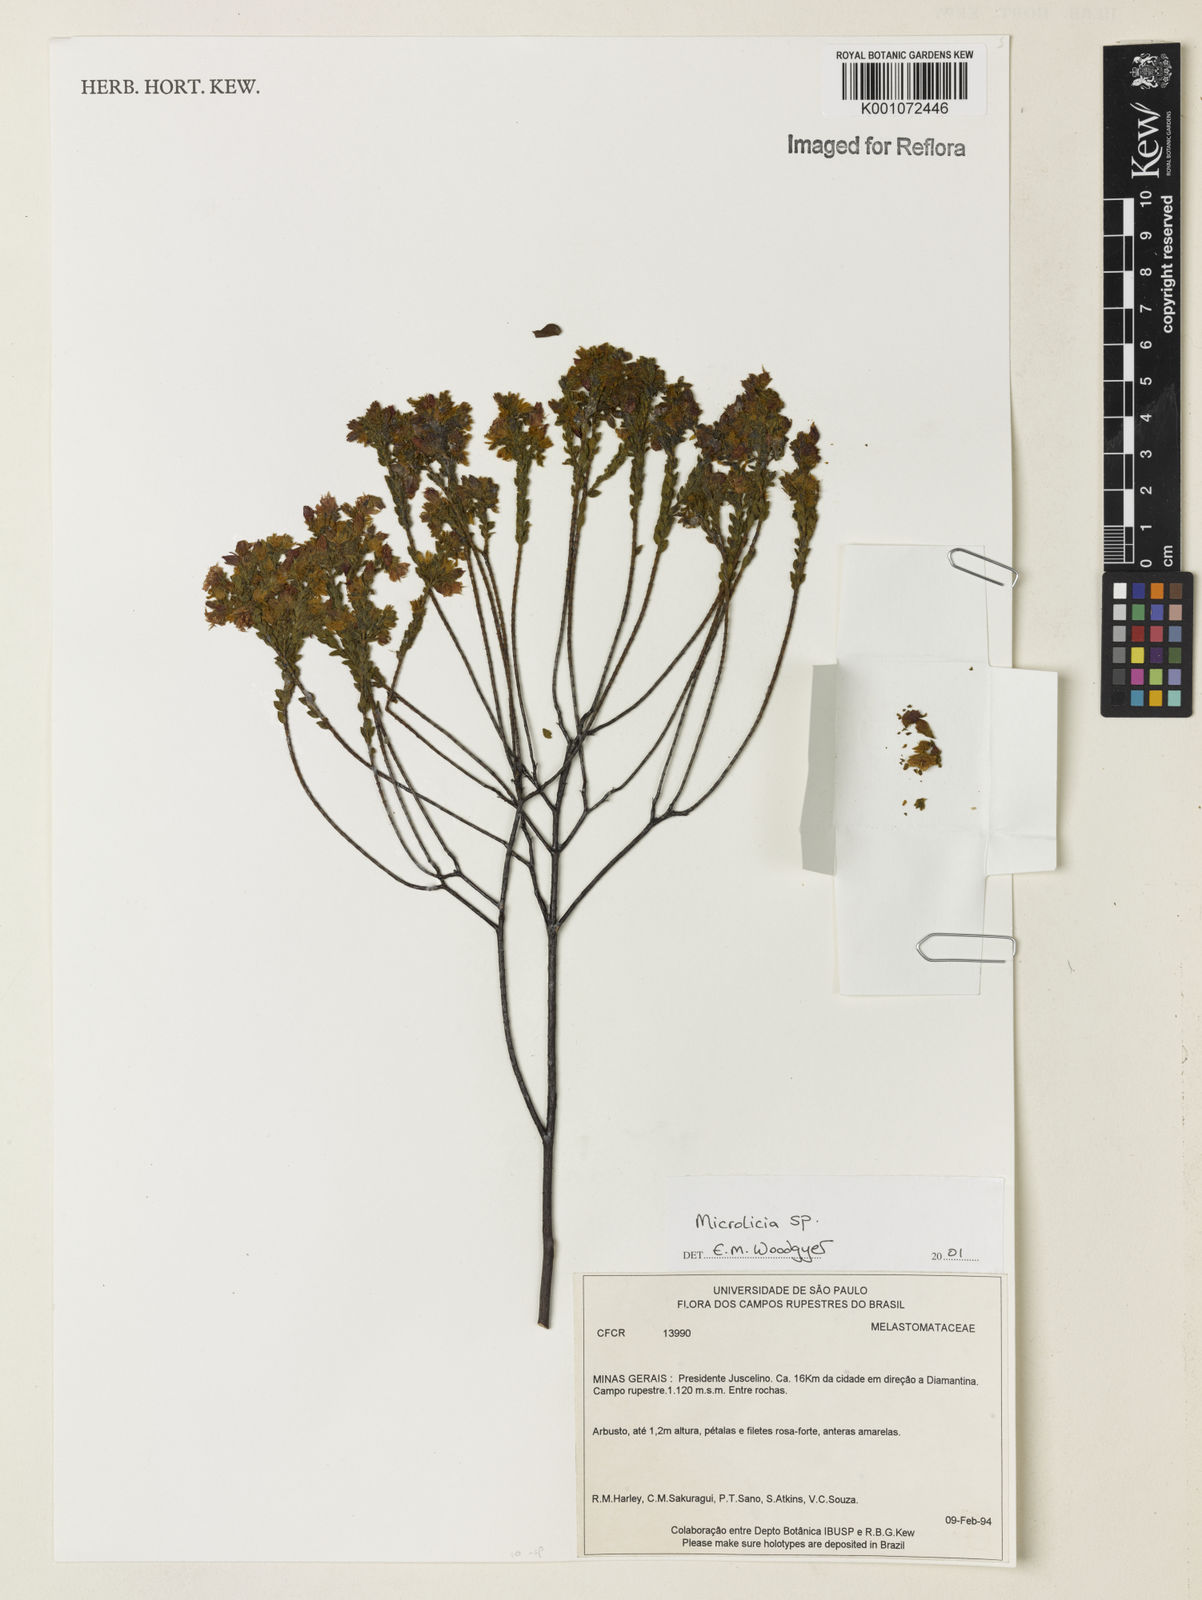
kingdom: Plantae
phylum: Tracheophyta
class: Magnoliopsida
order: Myrtales
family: Melastomataceae
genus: Microlicia
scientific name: Microlicia
